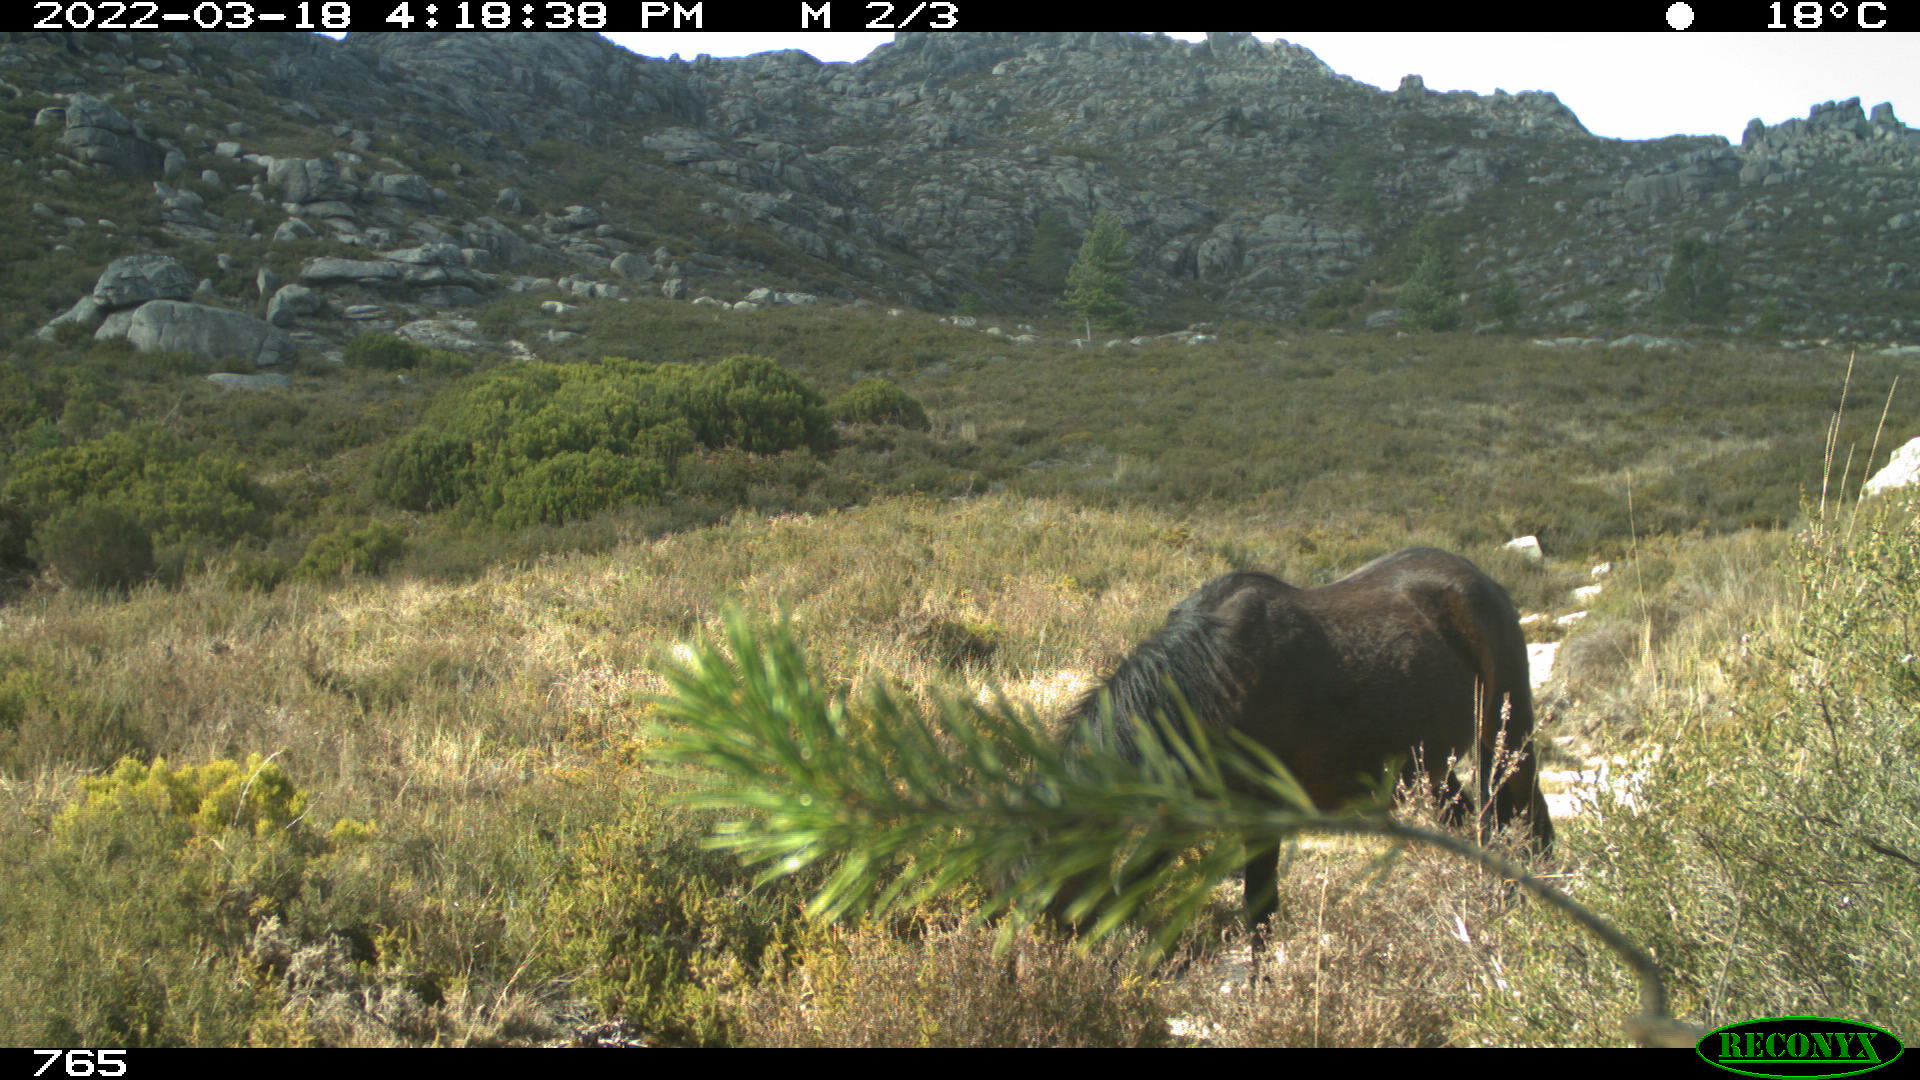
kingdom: Animalia
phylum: Chordata
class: Mammalia
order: Perissodactyla
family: Equidae
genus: Equus
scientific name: Equus caballus
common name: Horse
